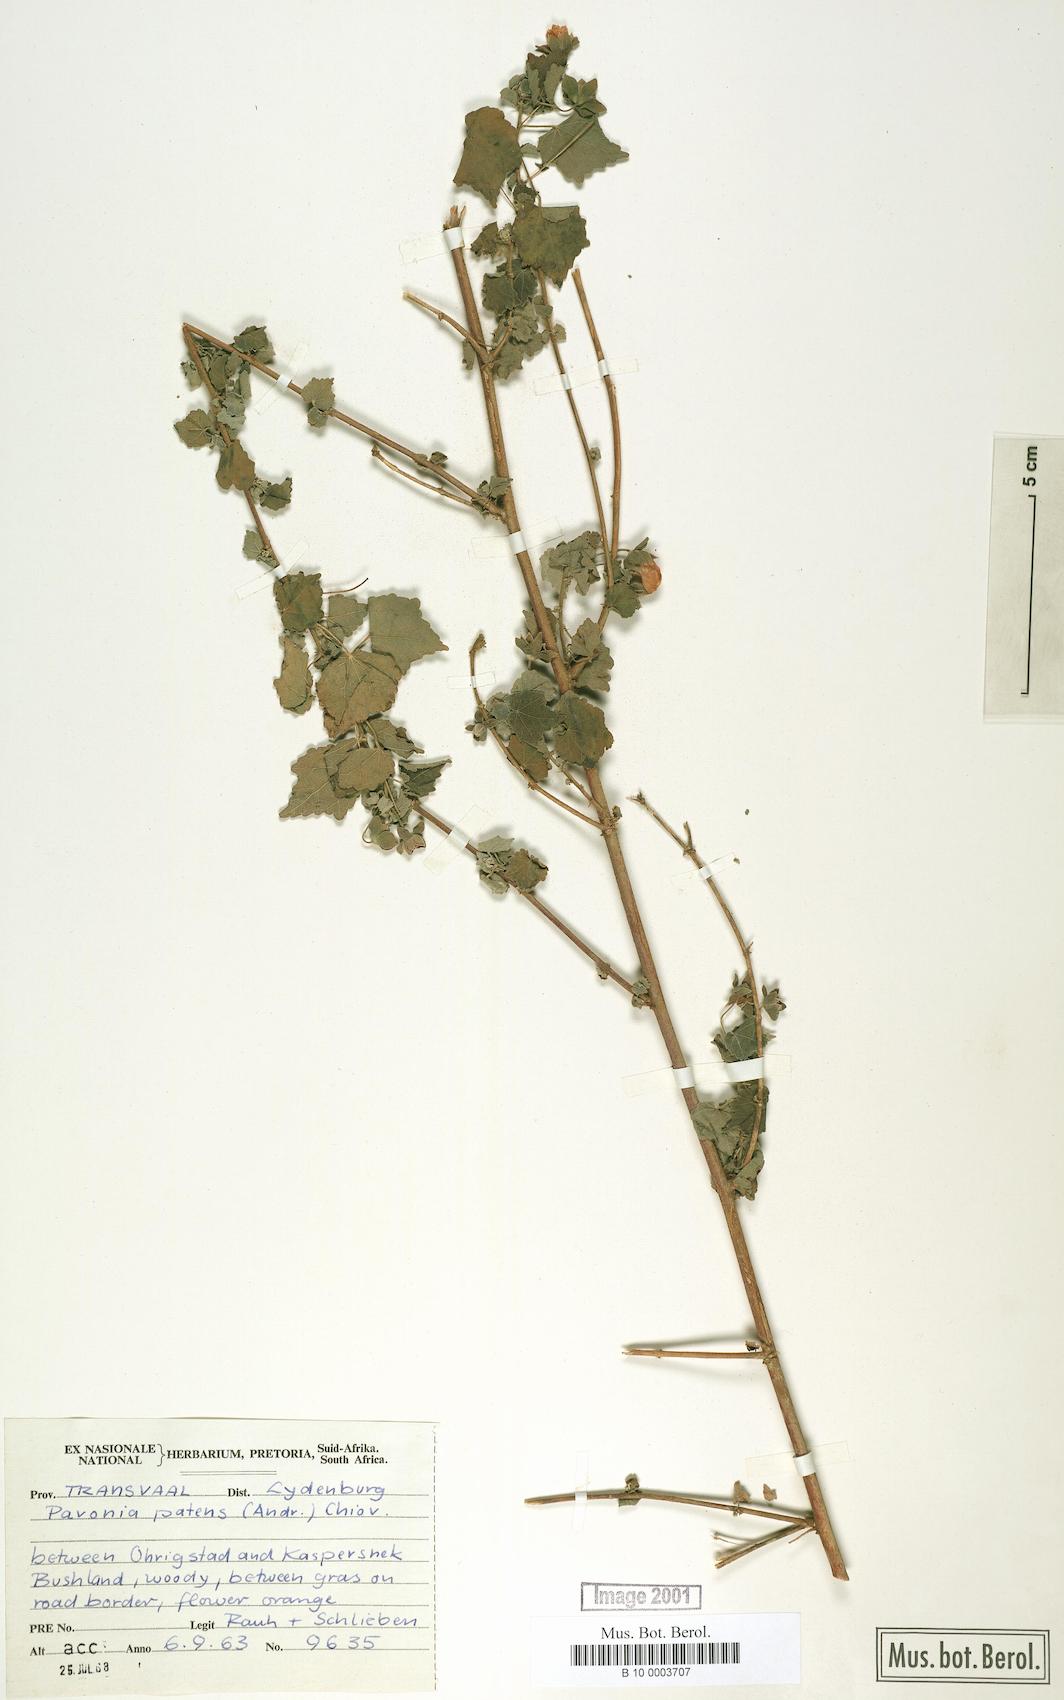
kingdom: Plantae
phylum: Tracheophyta
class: Magnoliopsida
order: Malvales
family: Malvaceae
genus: Abutilon
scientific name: Abutilon mauritianum
